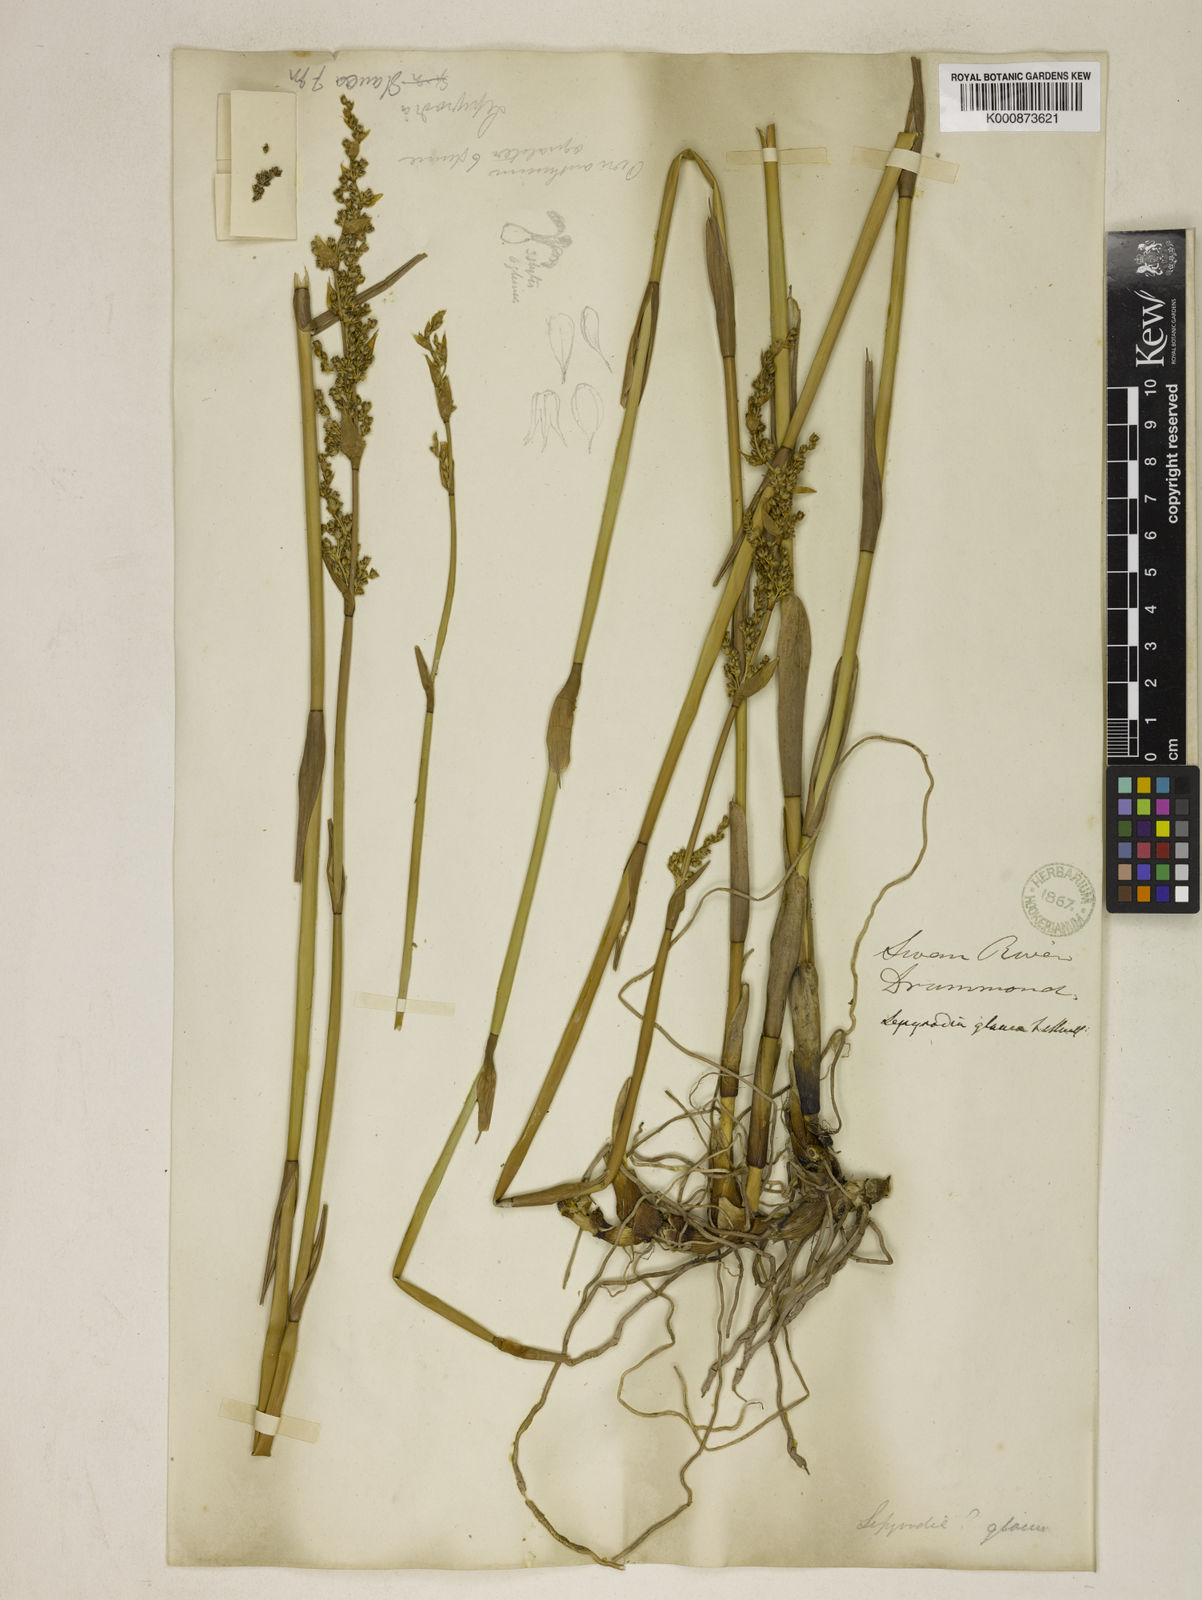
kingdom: Plantae
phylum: Tracheophyta
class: Liliopsida
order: Poales
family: Restionaceae
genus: Lepyrodia
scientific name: Lepyrodia glauca
